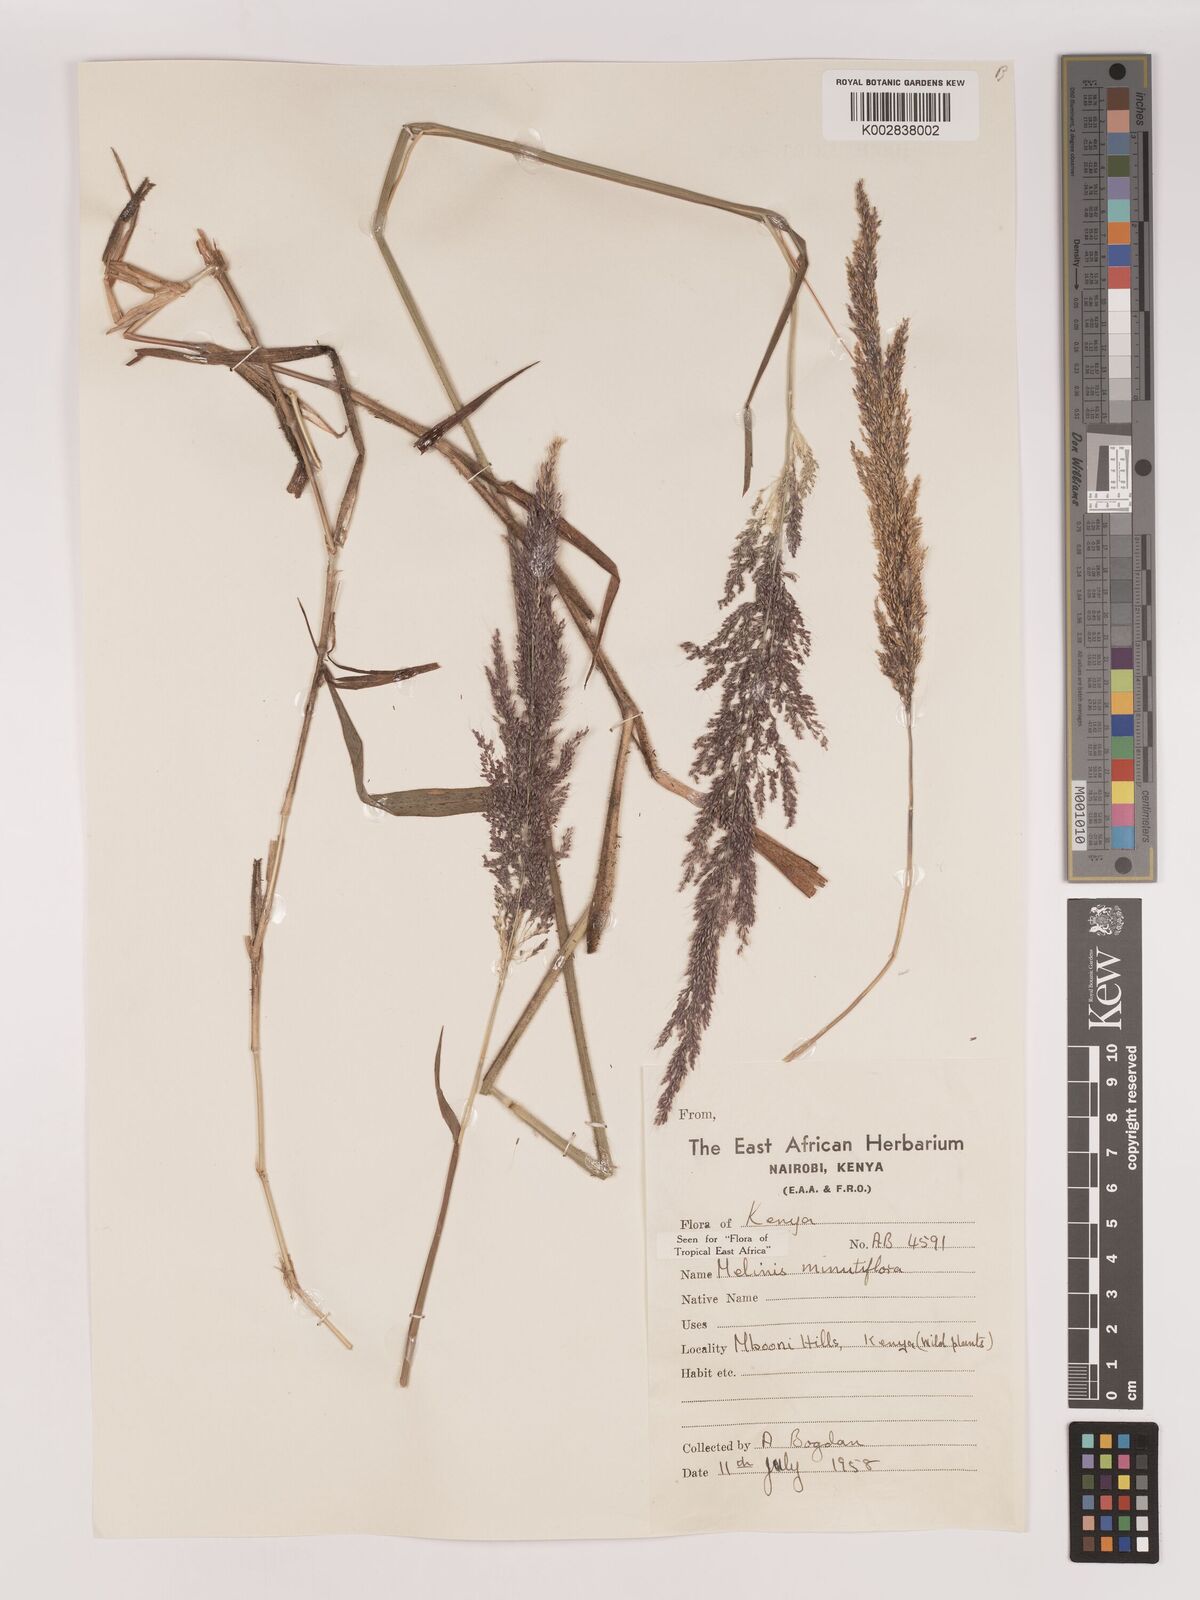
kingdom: Plantae
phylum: Tracheophyta
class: Liliopsida
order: Poales
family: Poaceae
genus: Melinis
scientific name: Melinis minutiflora
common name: Molassesgrass
